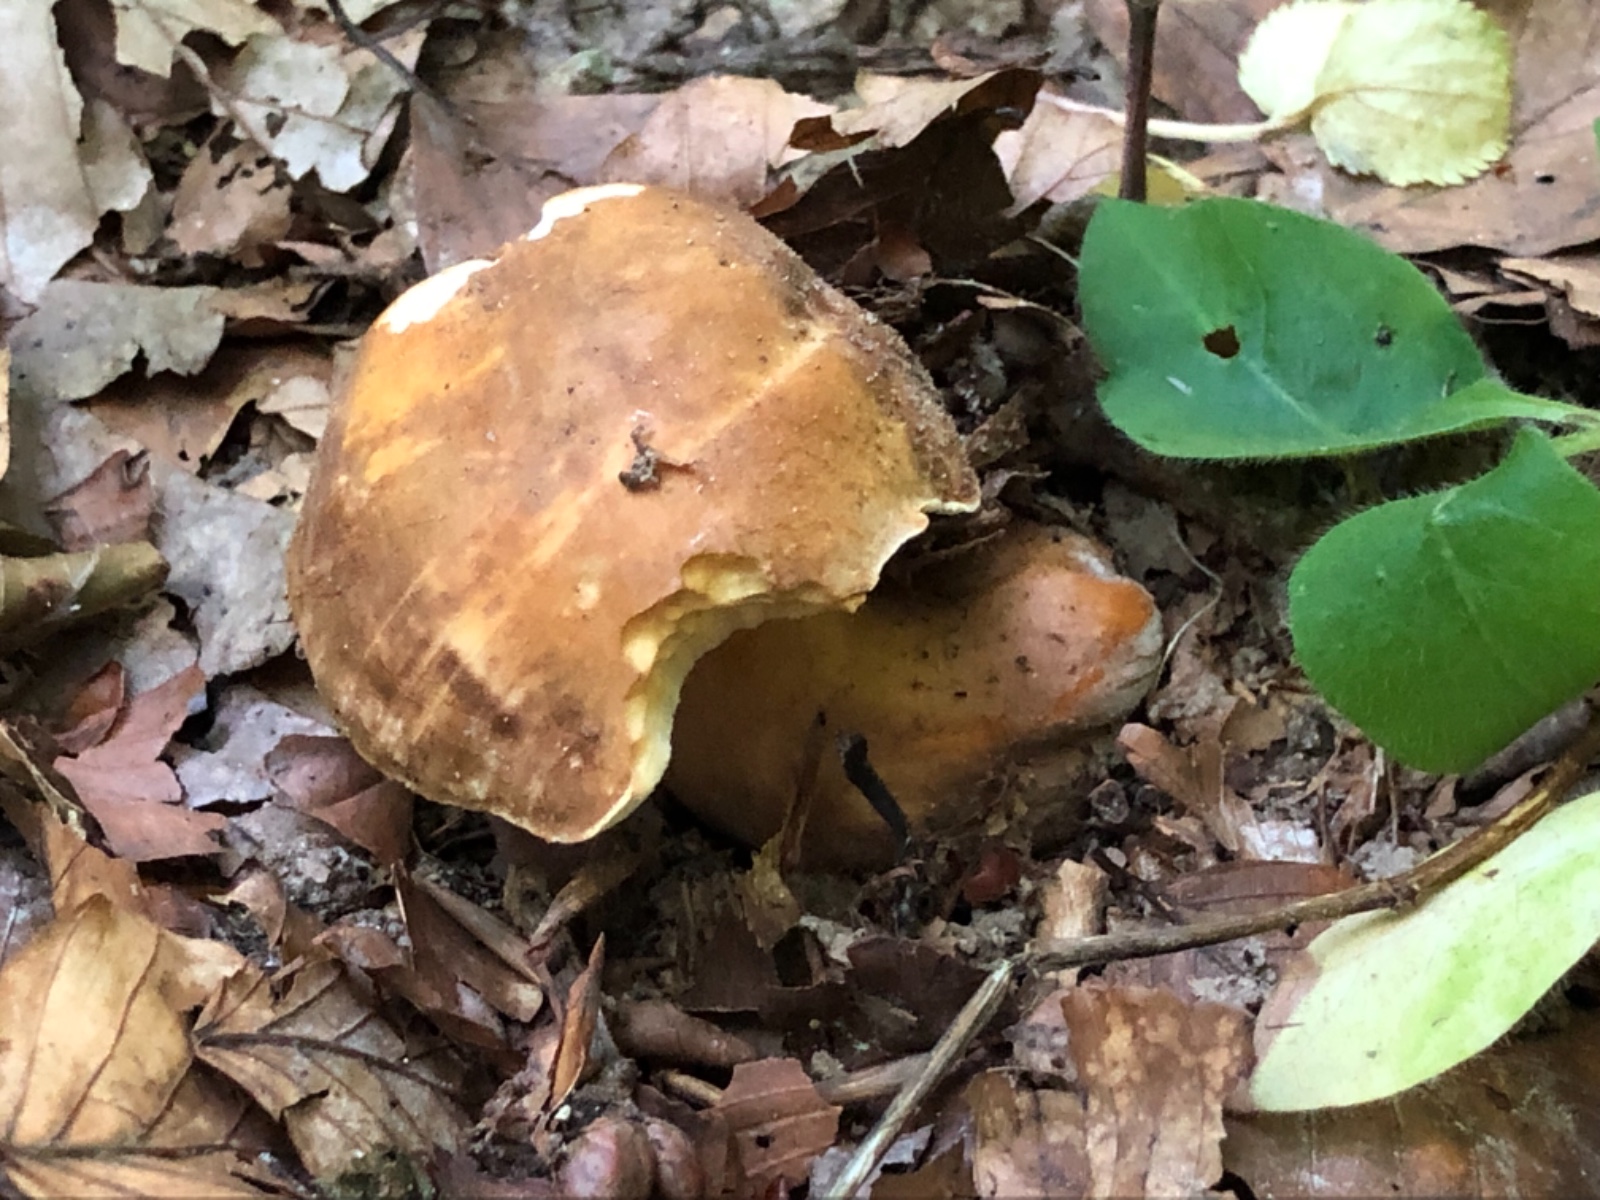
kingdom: Fungi
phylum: Basidiomycota
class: Agaricomycetes
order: Boletales
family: Gyroporaceae
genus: Gyroporus
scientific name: Gyroporus castaneus
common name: kastanie-kammerrørhat
